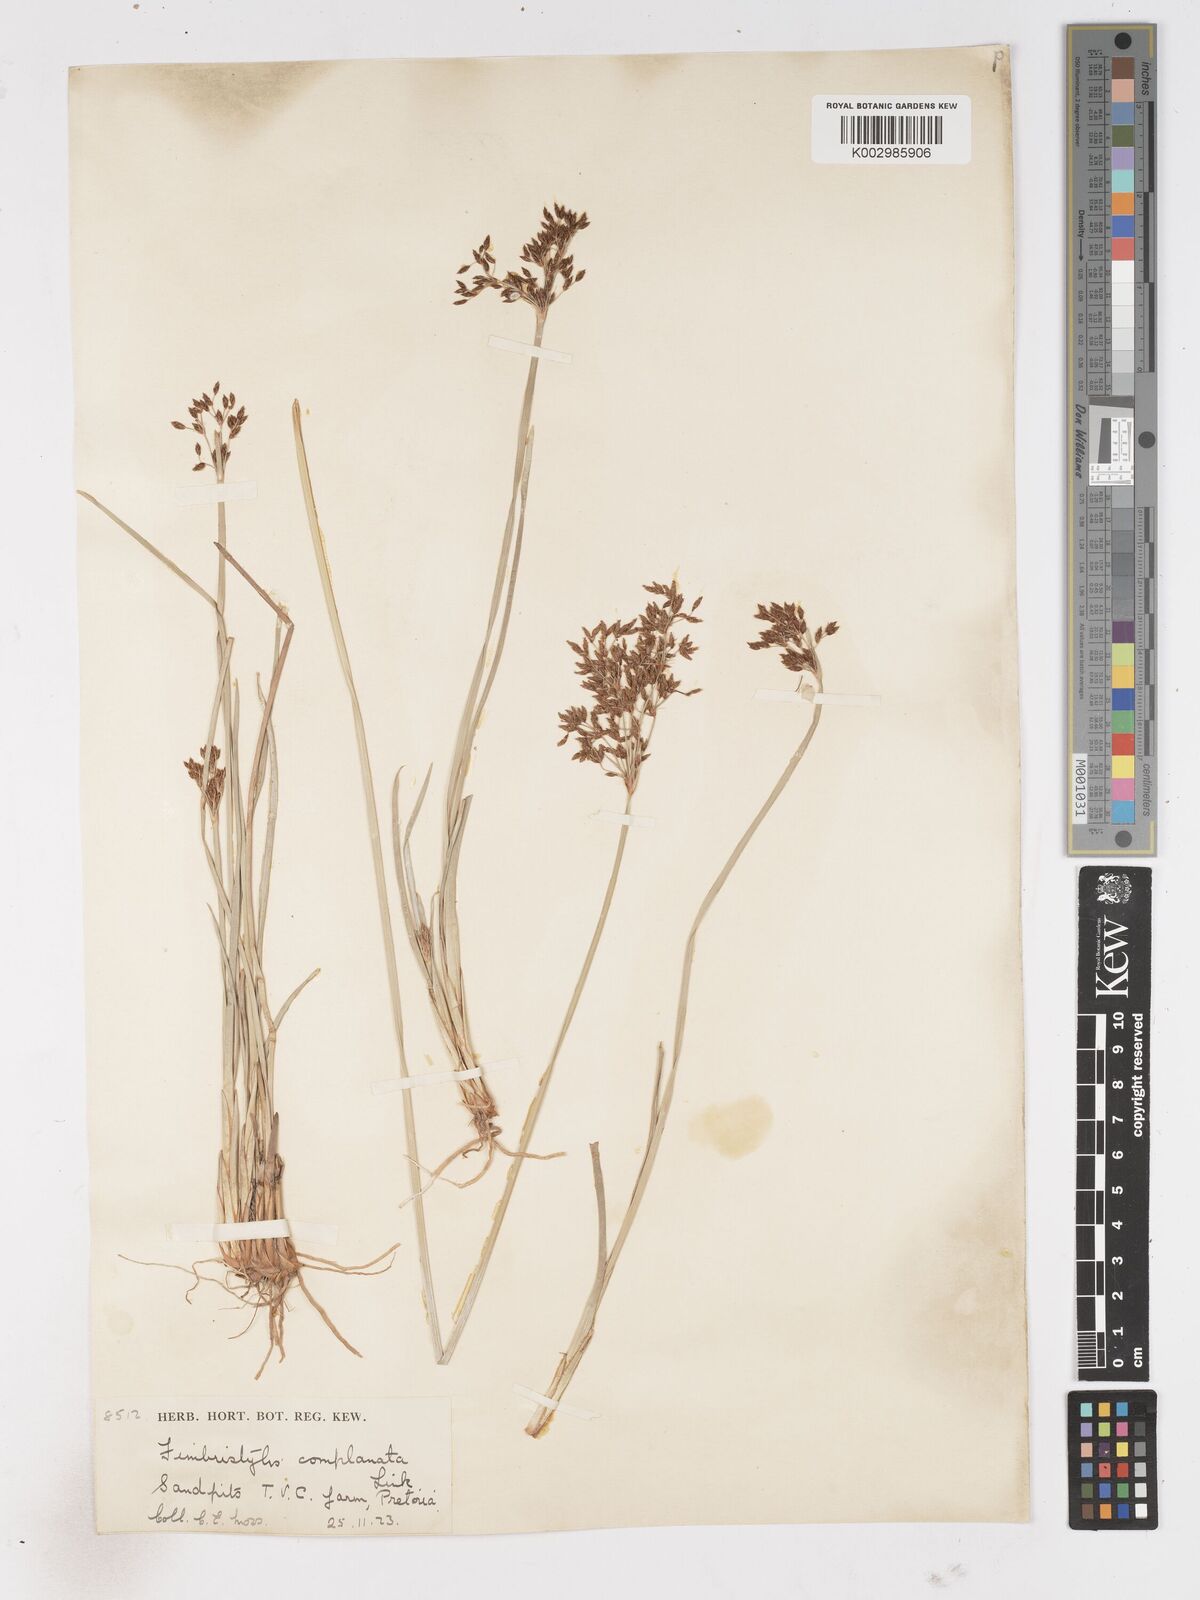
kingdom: Plantae
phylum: Tracheophyta
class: Liliopsida
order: Poales
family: Cyperaceae
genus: Fimbristylis
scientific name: Fimbristylis complanata
